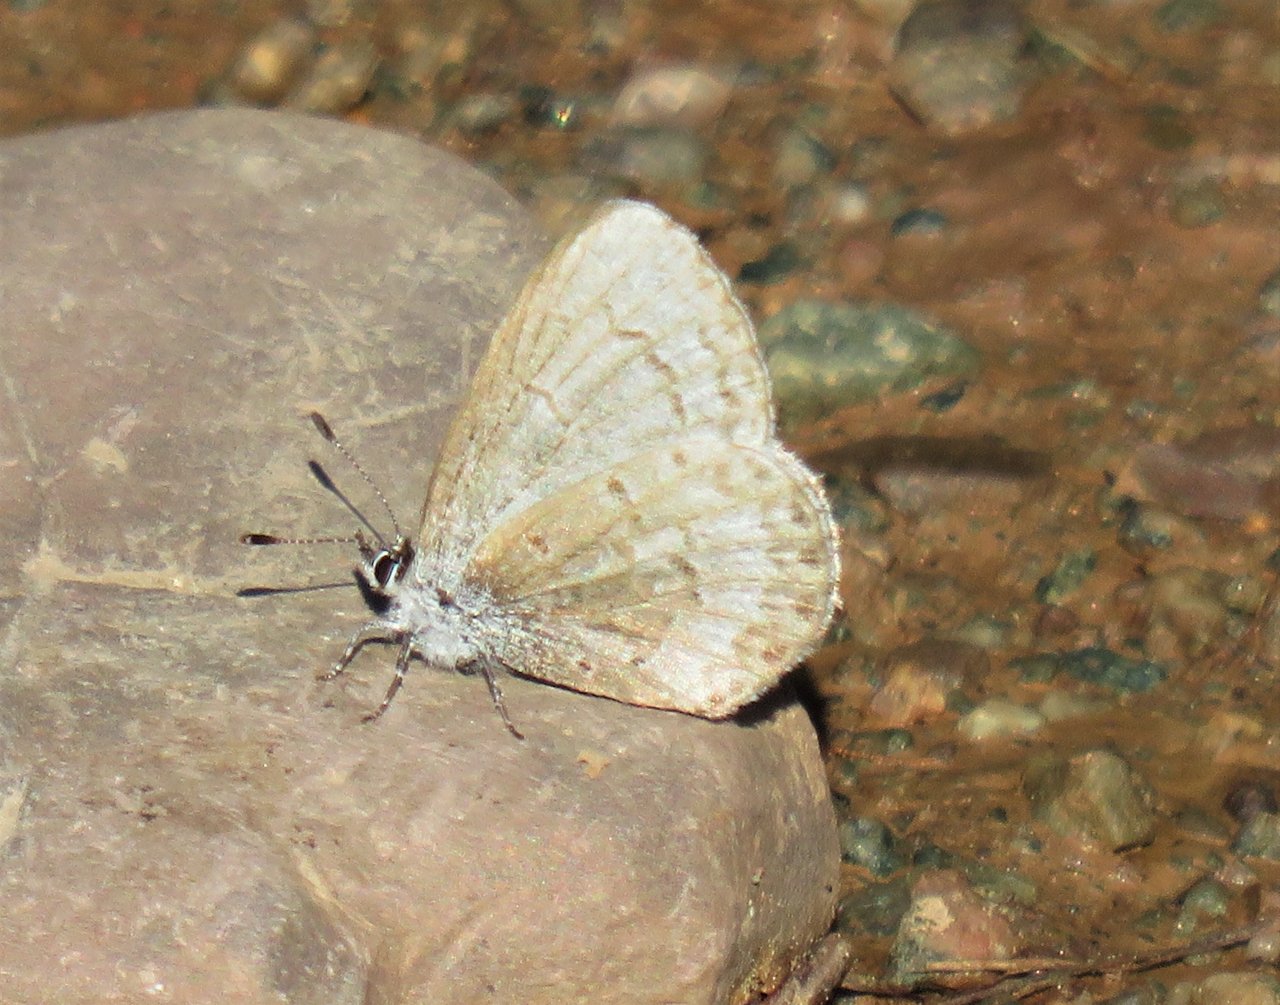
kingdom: Animalia
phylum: Arthropoda
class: Insecta
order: Lepidoptera
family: Lycaenidae
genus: Celastrina
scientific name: Celastrina lucia
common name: Northern Spring Azure
